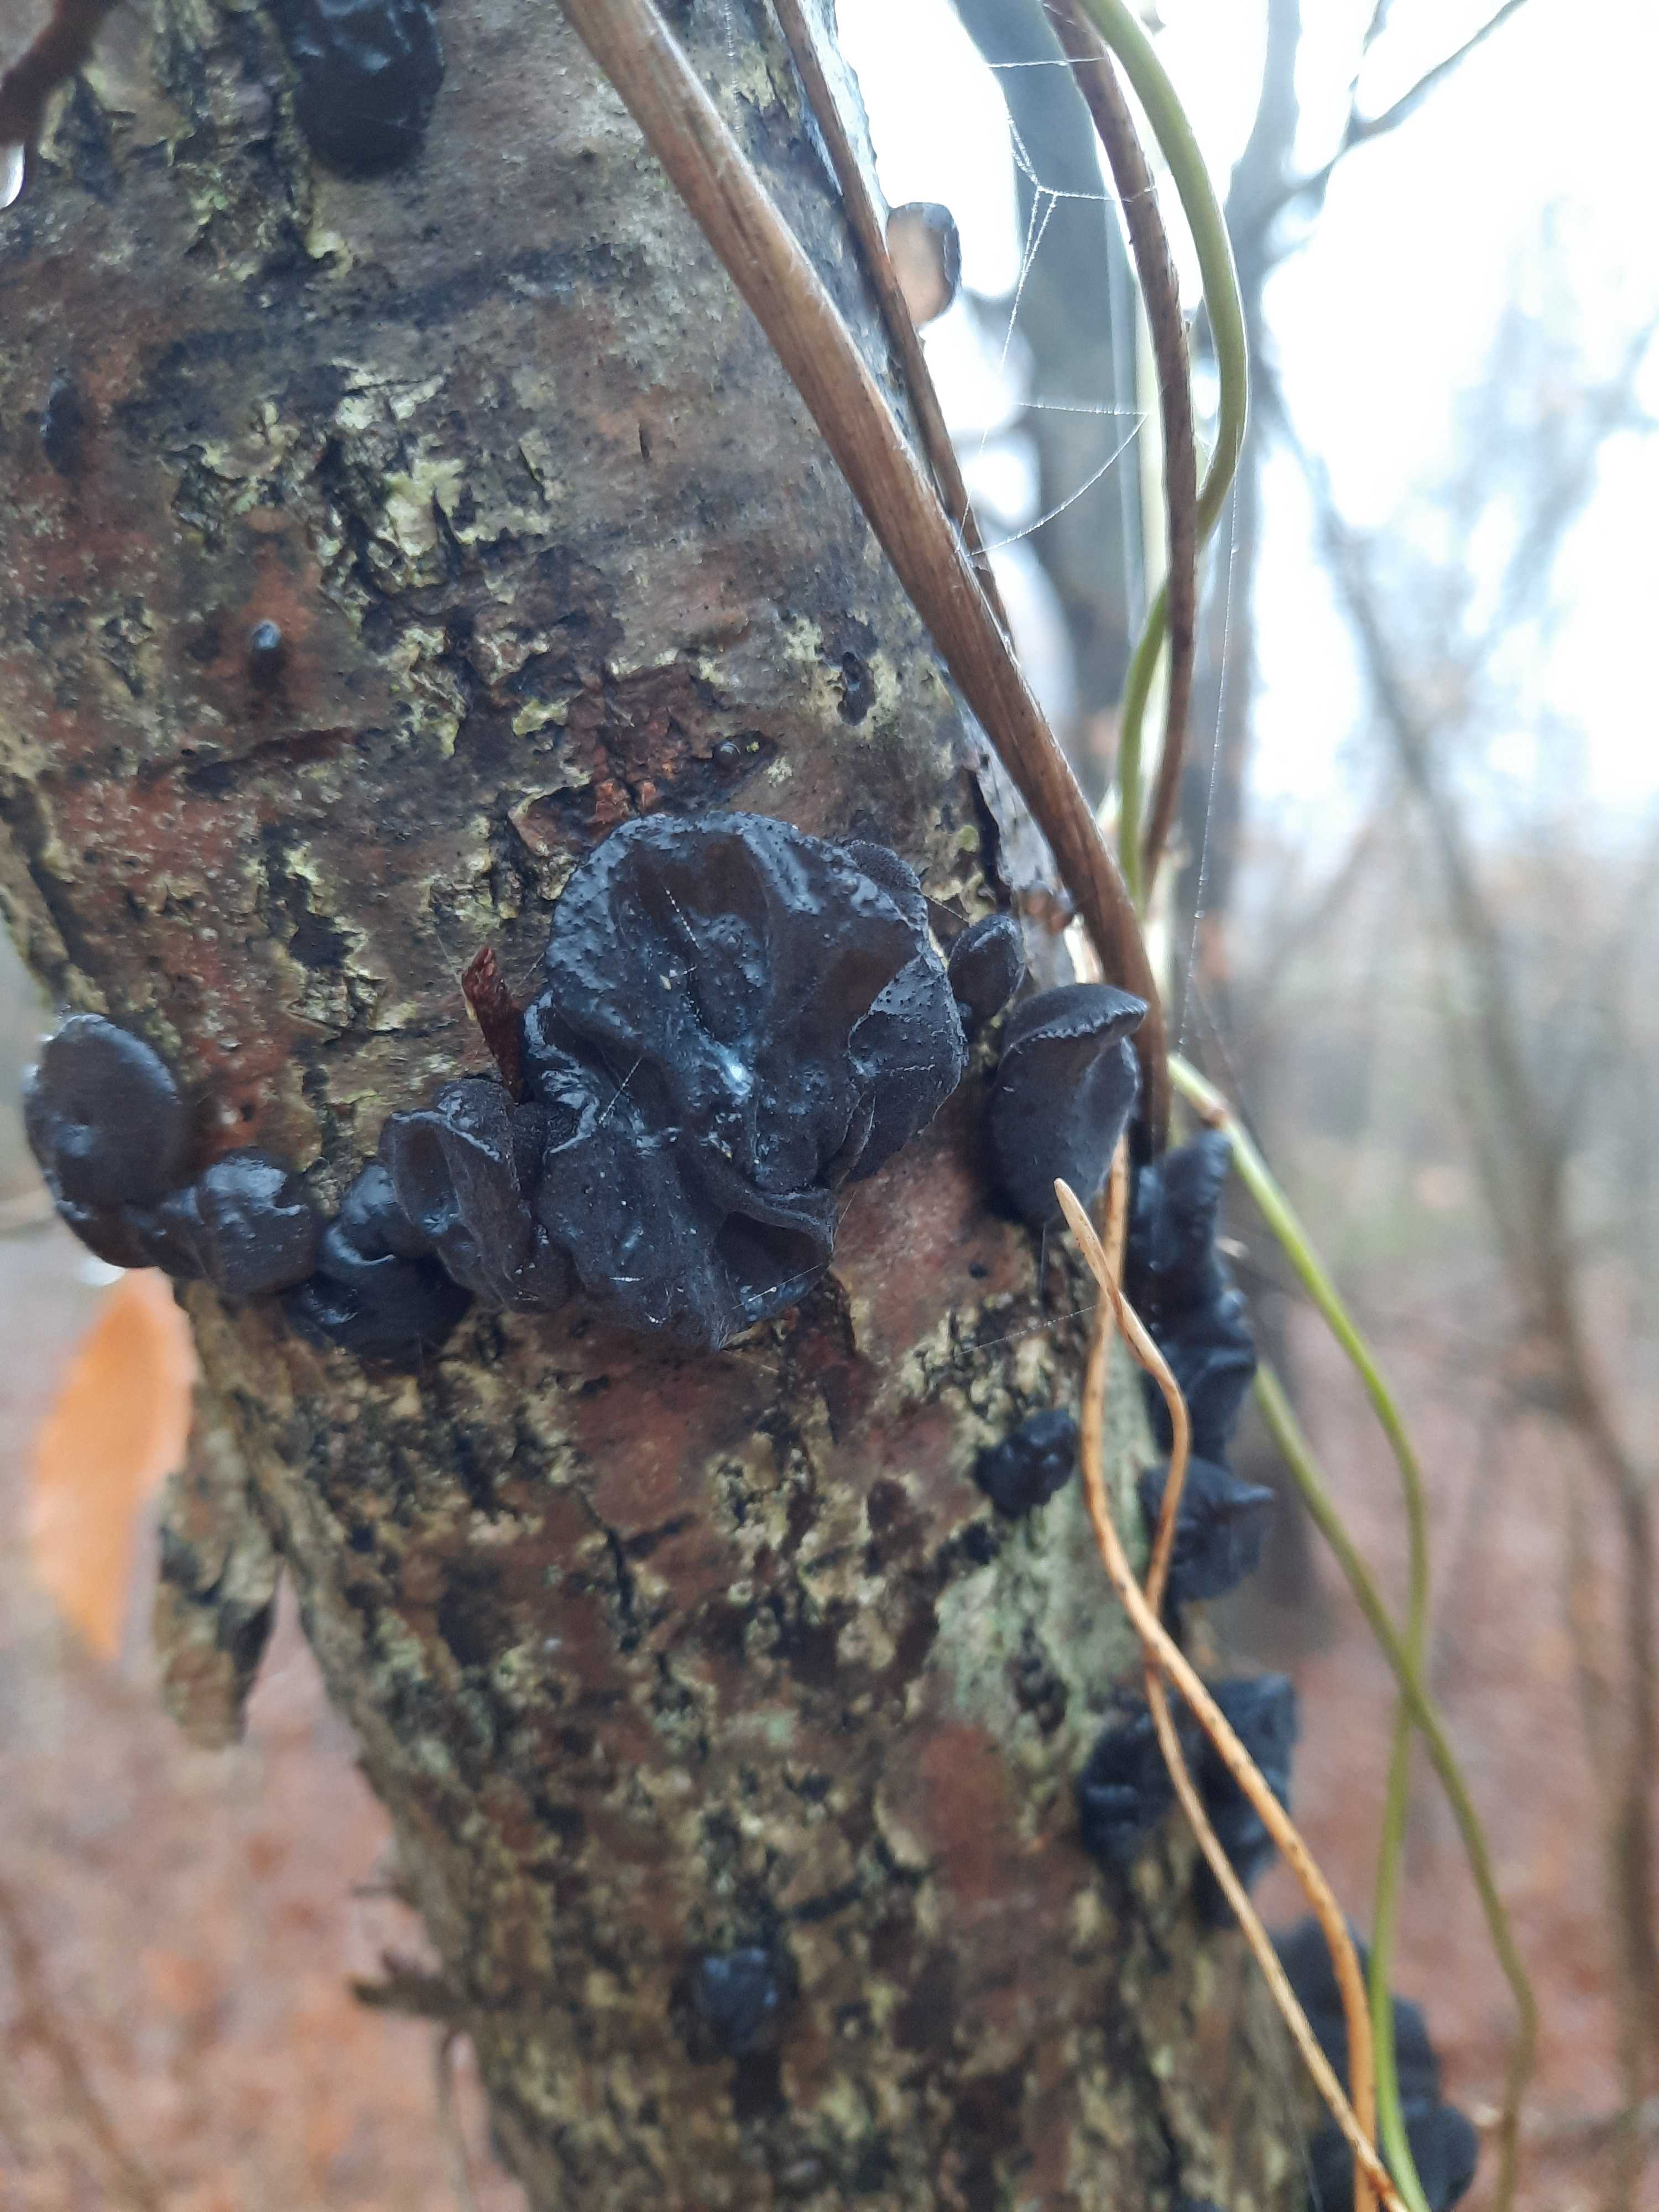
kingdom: Fungi
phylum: Basidiomycota
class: Agaricomycetes
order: Auriculariales
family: Auriculariaceae
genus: Exidia
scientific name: Exidia glandulosa
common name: ege-bævretop
